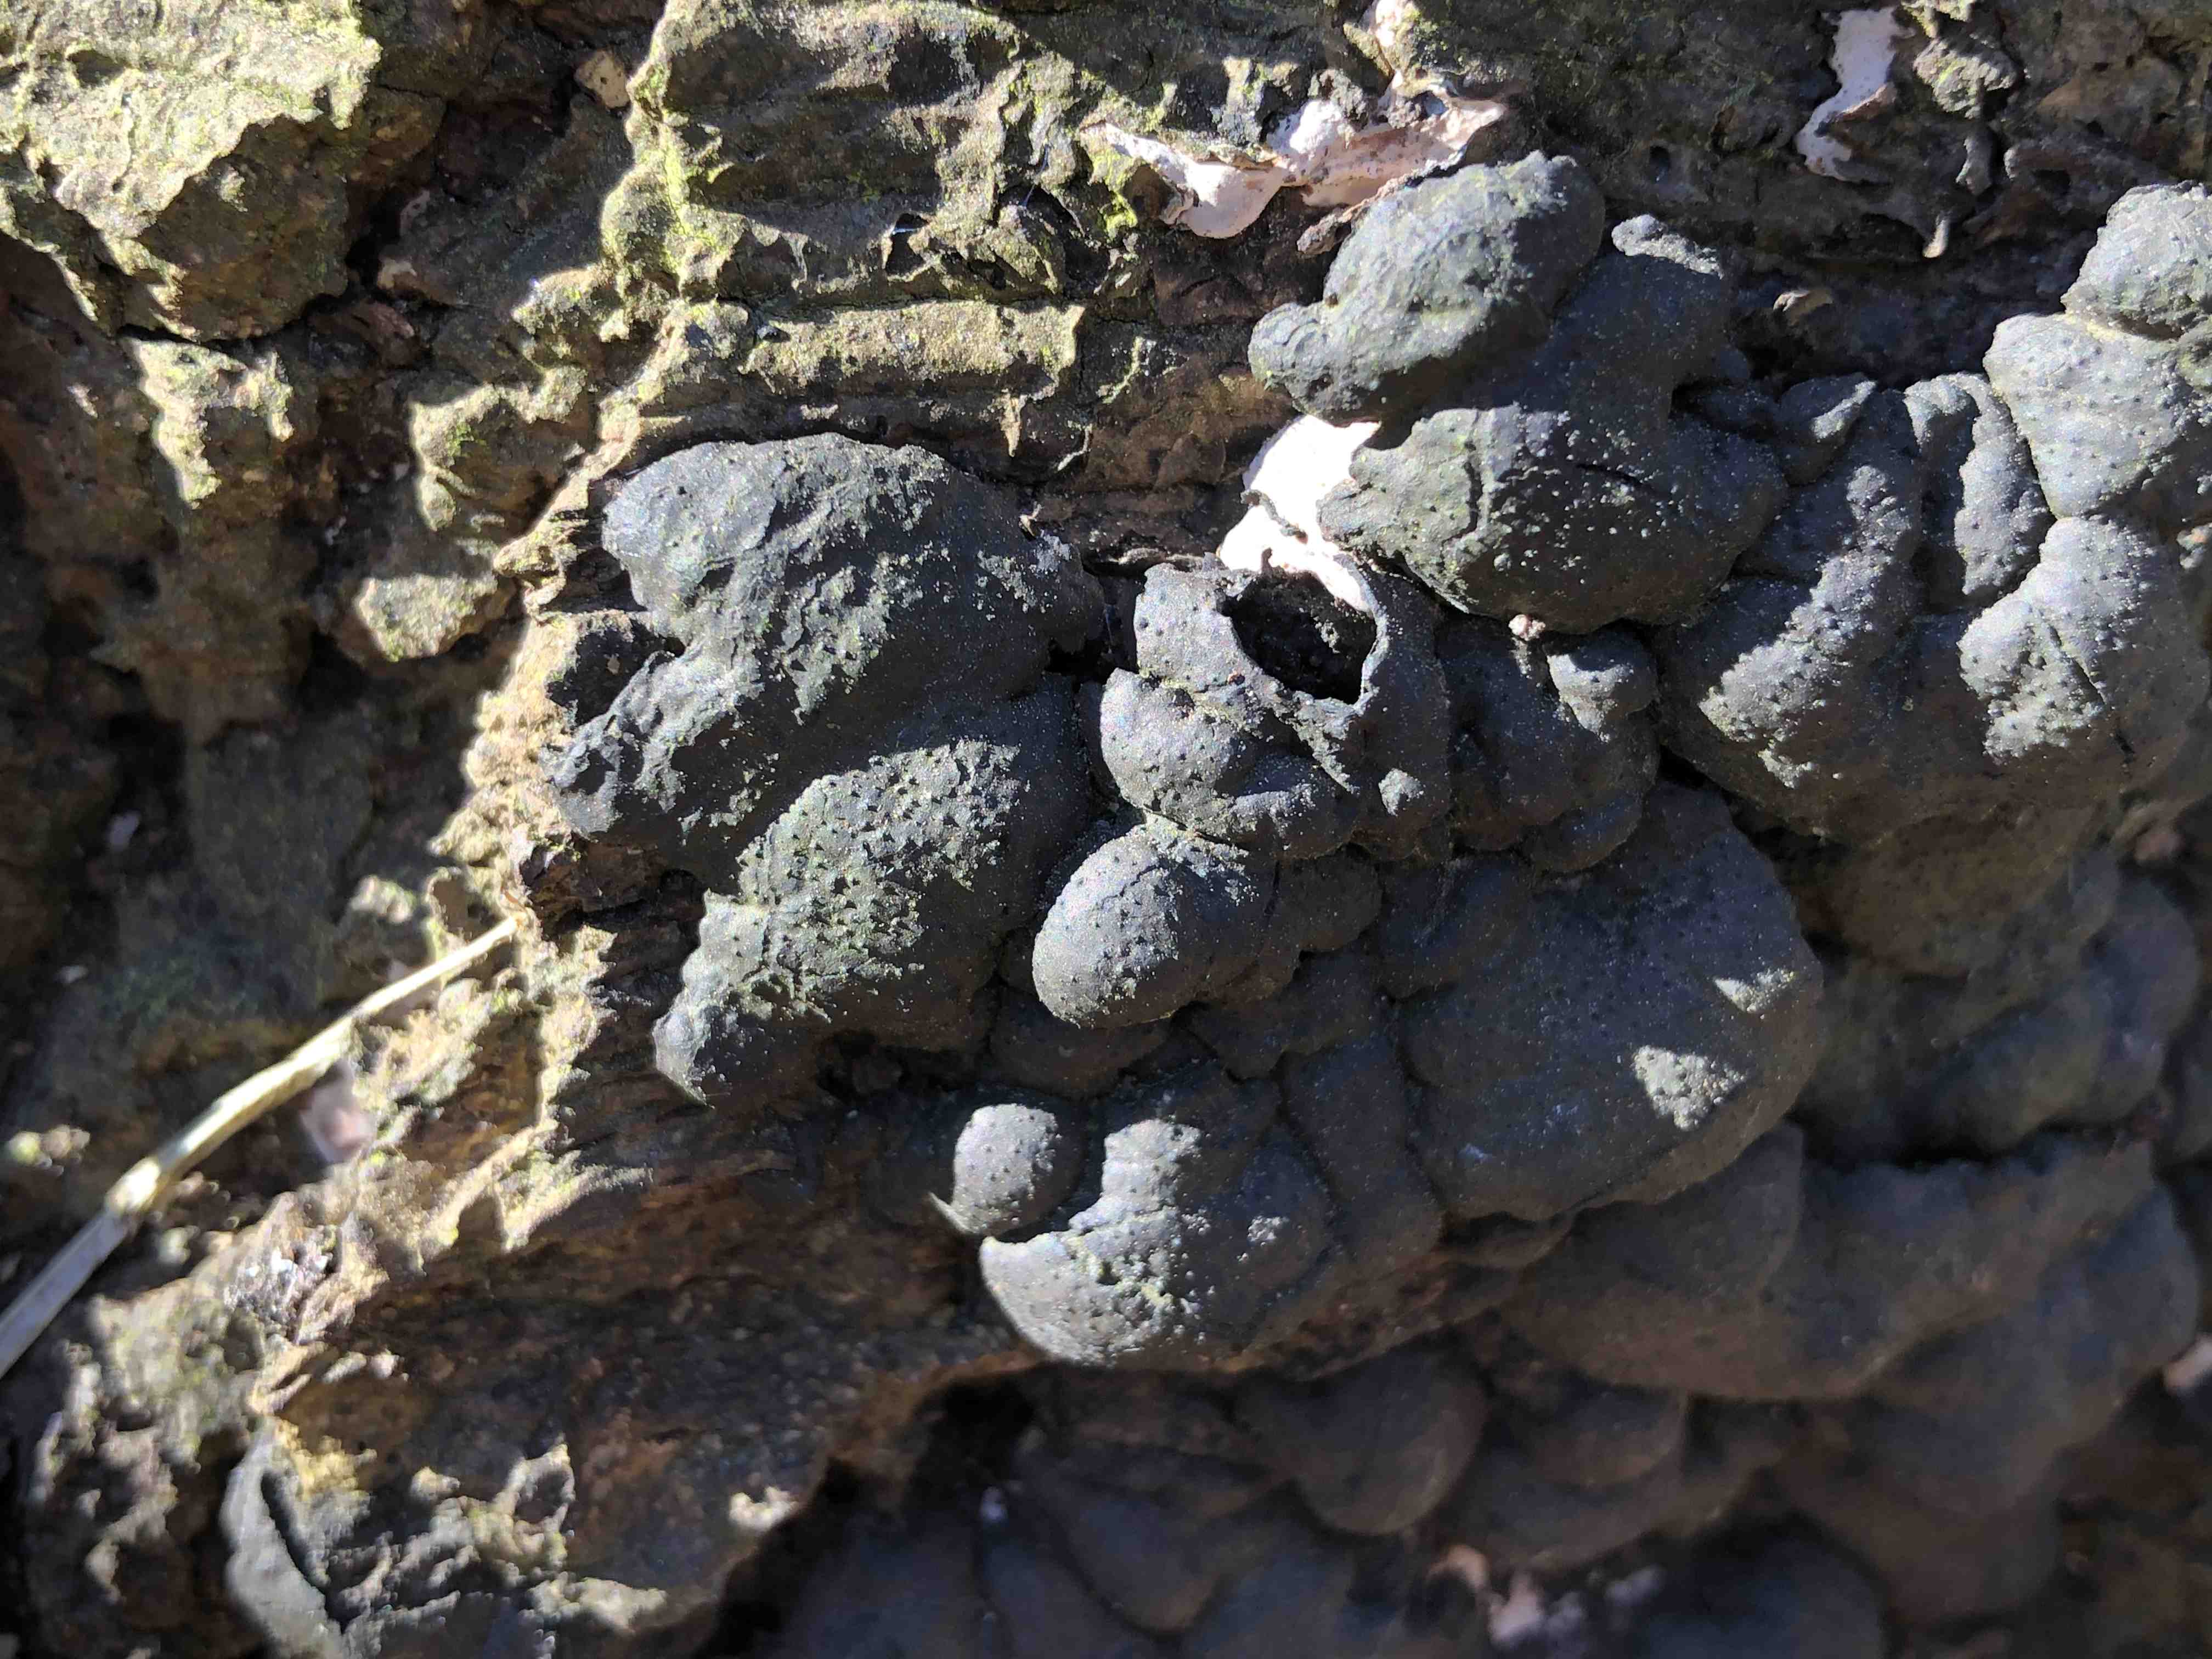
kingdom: Fungi
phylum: Ascomycota
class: Sordariomycetes
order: Xylariales
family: Xylariaceae
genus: Kretzschmaria
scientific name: Kretzschmaria deusta
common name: stor kulsvamp
